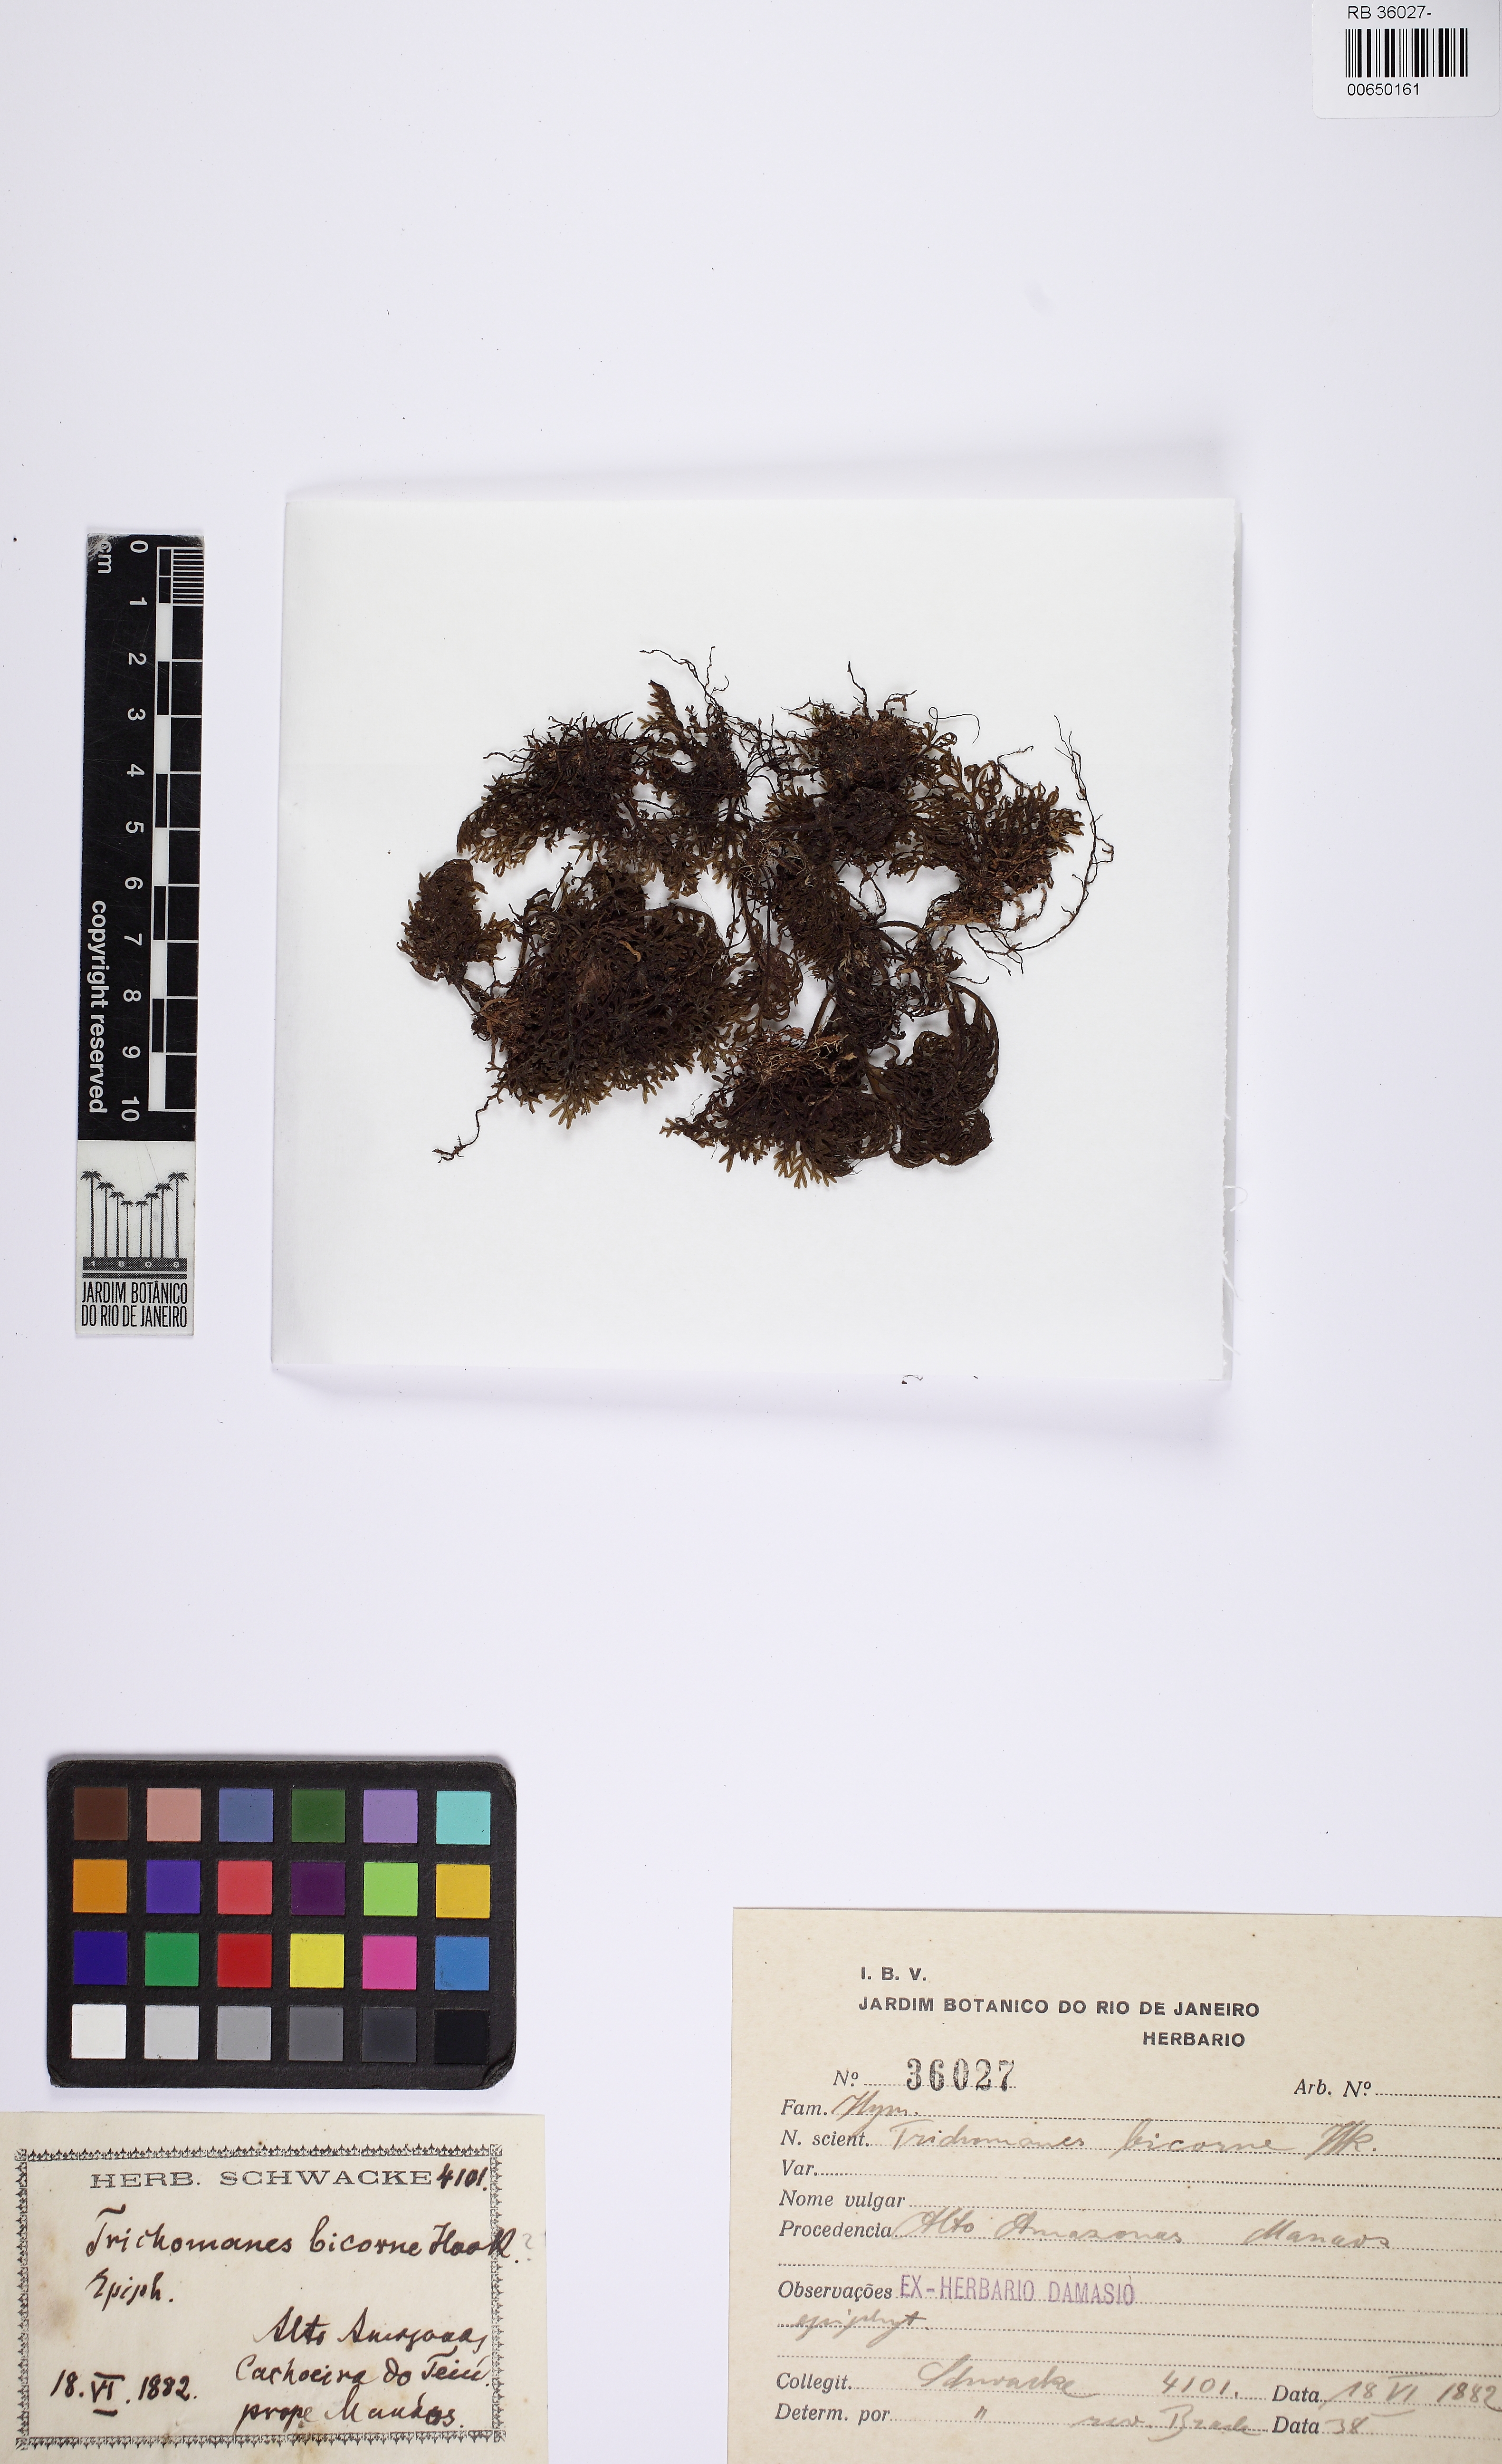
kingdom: Plantae
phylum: Tracheophyta
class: Polypodiopsida
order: Hymenophyllales
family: Hymenophyllaceae
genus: Trichomanes
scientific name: Trichomanes bicorne
